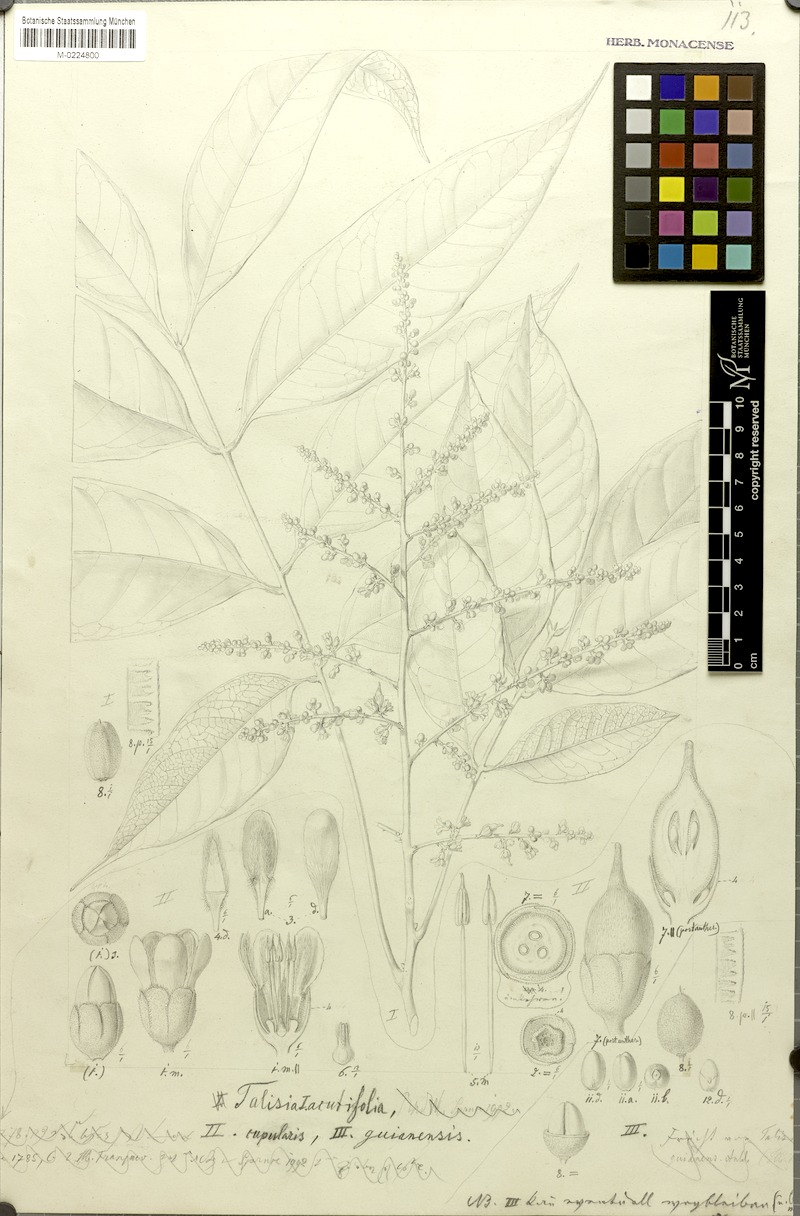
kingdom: Plantae
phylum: Tracheophyta
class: Magnoliopsida
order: Sapindales
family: Sapindaceae
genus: Talisia
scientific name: Talisia cupularis
